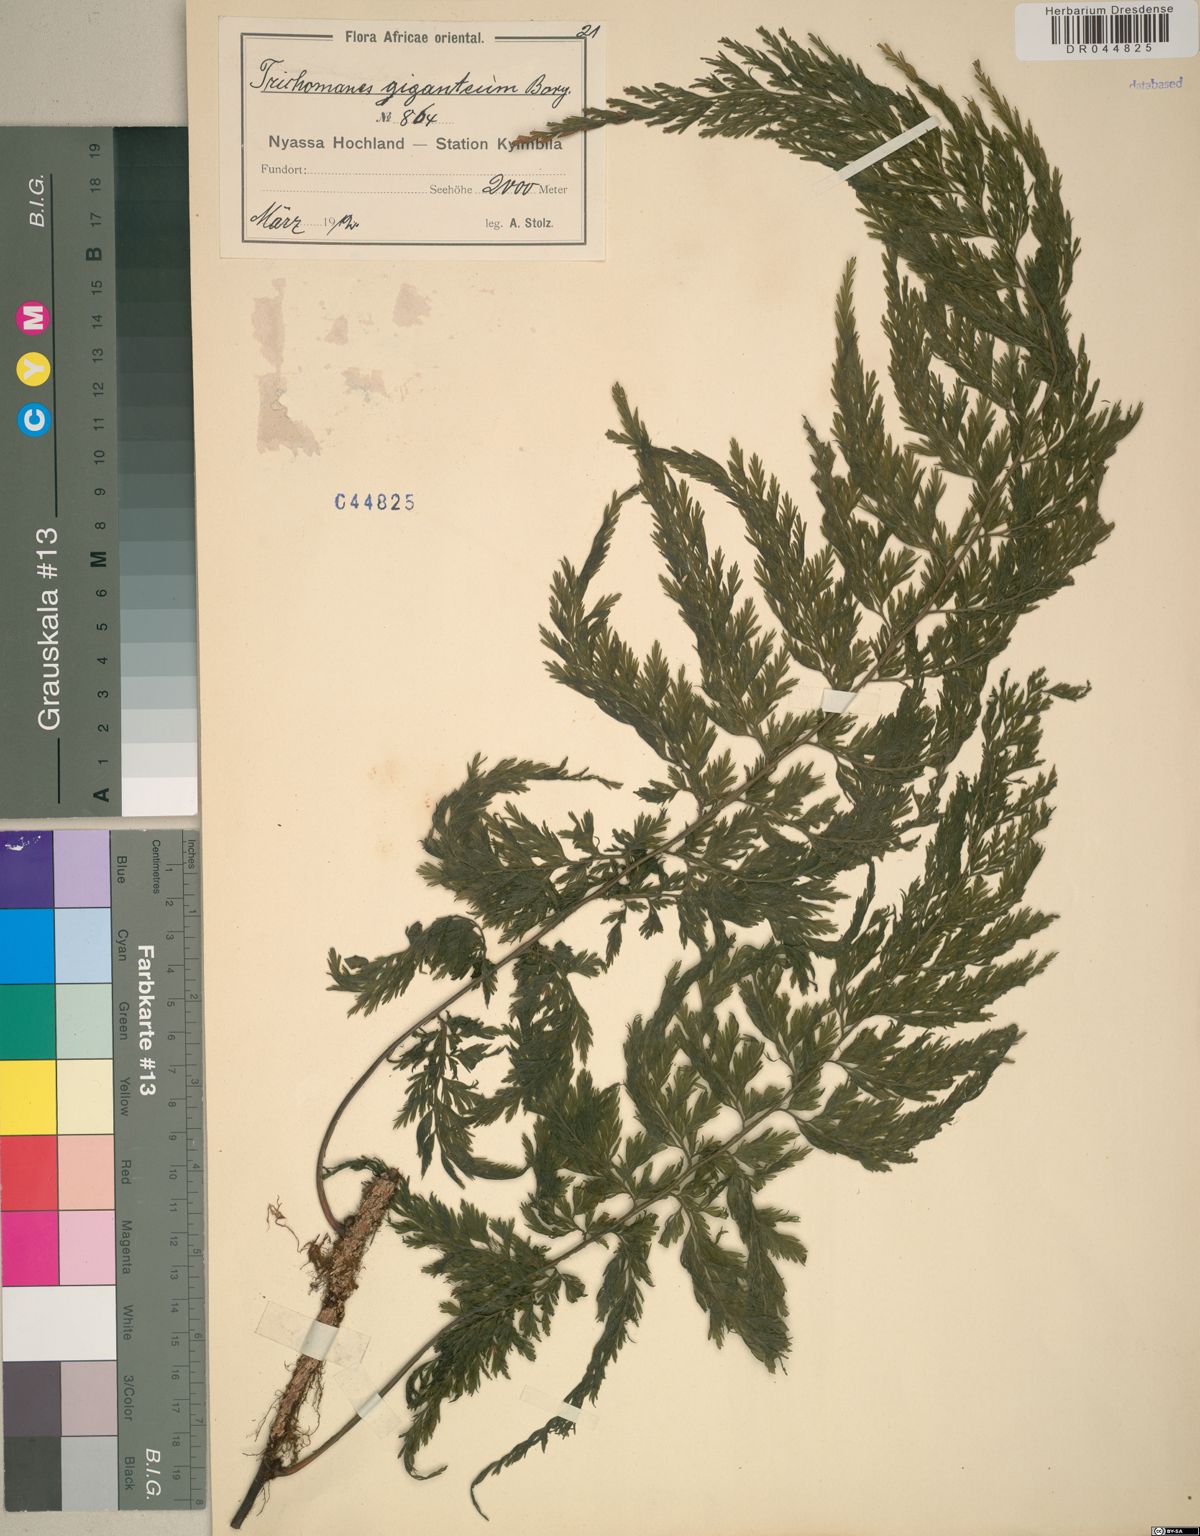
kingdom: Plantae
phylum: Tracheophyta
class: Polypodiopsida
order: Hymenophyllales
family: Hymenophyllaceae
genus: Vandenboschia
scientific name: Vandenboschia gigantea
